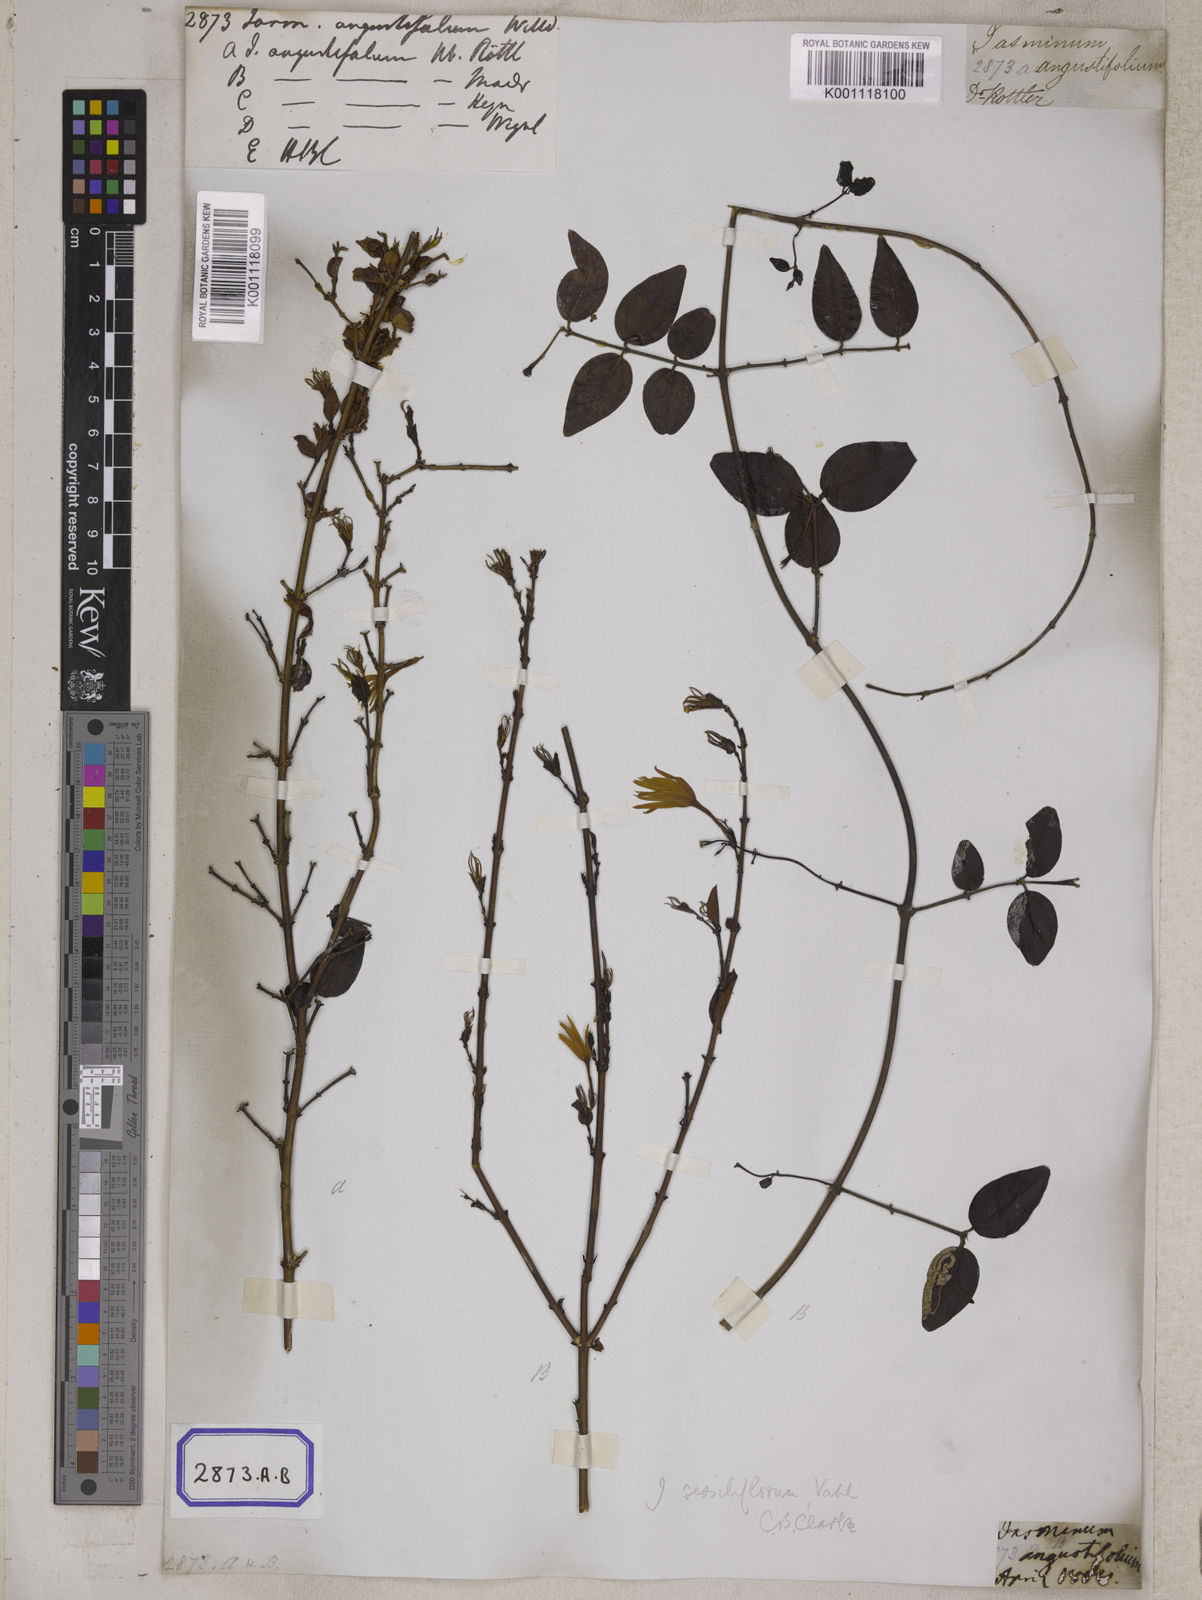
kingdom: Plantae
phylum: Tracheophyta
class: Magnoliopsida
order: Lamiales
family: Oleaceae
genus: Jasminum
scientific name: Jasminum angustifolium
